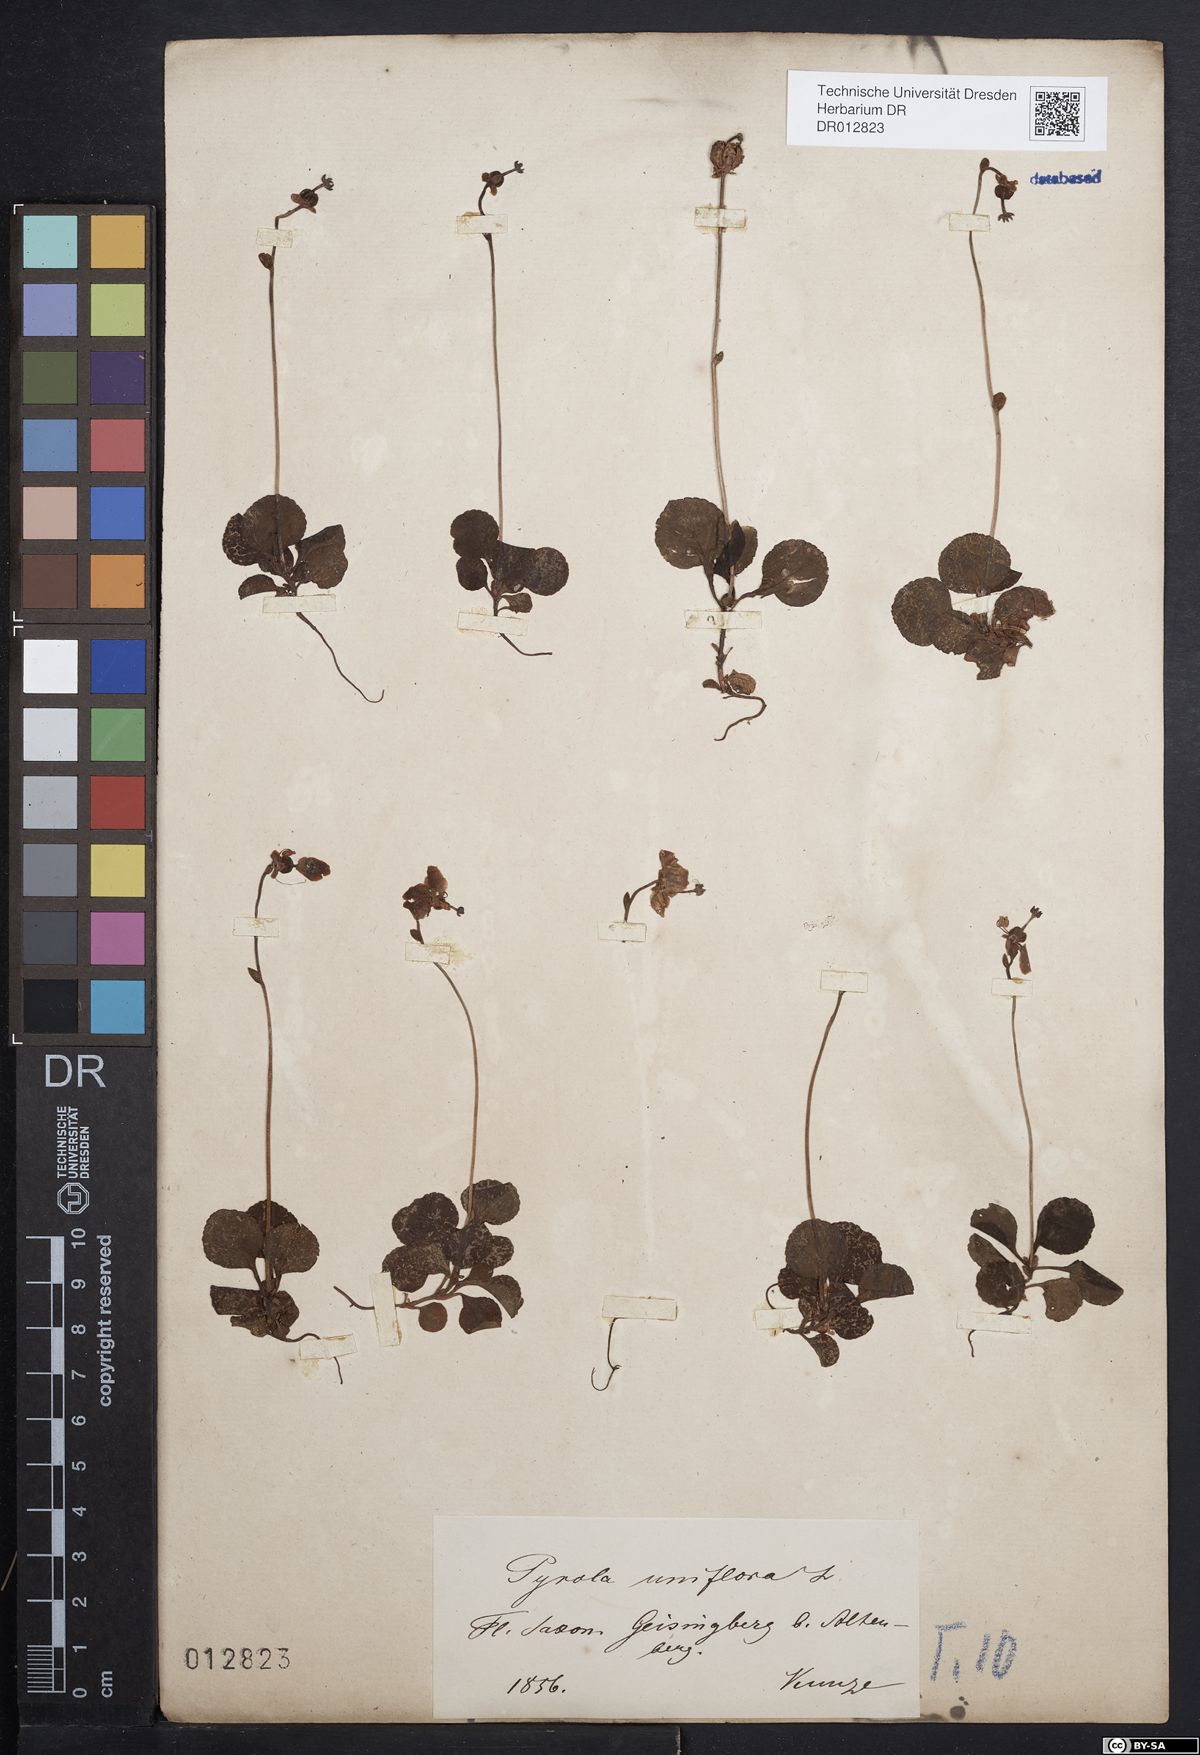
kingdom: Plantae
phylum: Tracheophyta
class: Magnoliopsida
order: Ericales
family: Ericaceae
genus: Moneses
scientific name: Moneses uniflora
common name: One-flowered wintergreen
